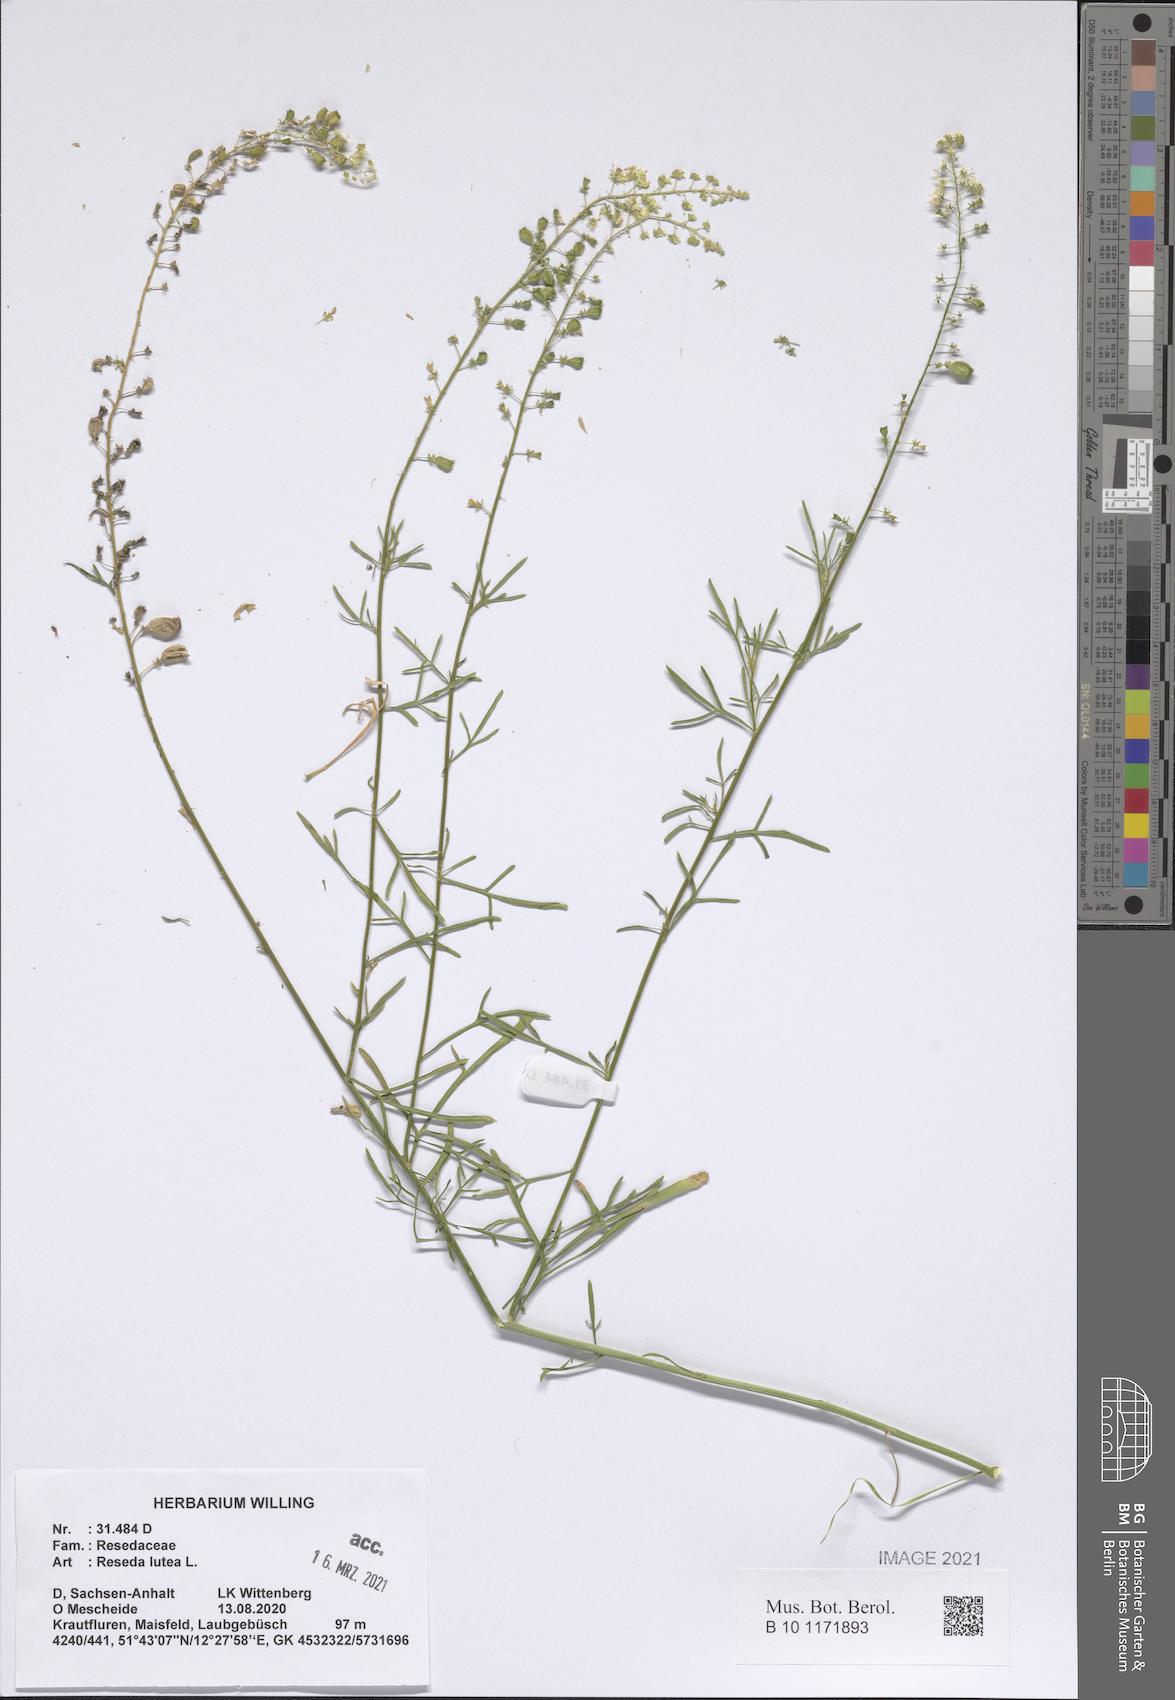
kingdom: Plantae
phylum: Tracheophyta
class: Magnoliopsida
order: Brassicales
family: Resedaceae
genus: Reseda
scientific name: Reseda lutea
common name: Wild mignonette
